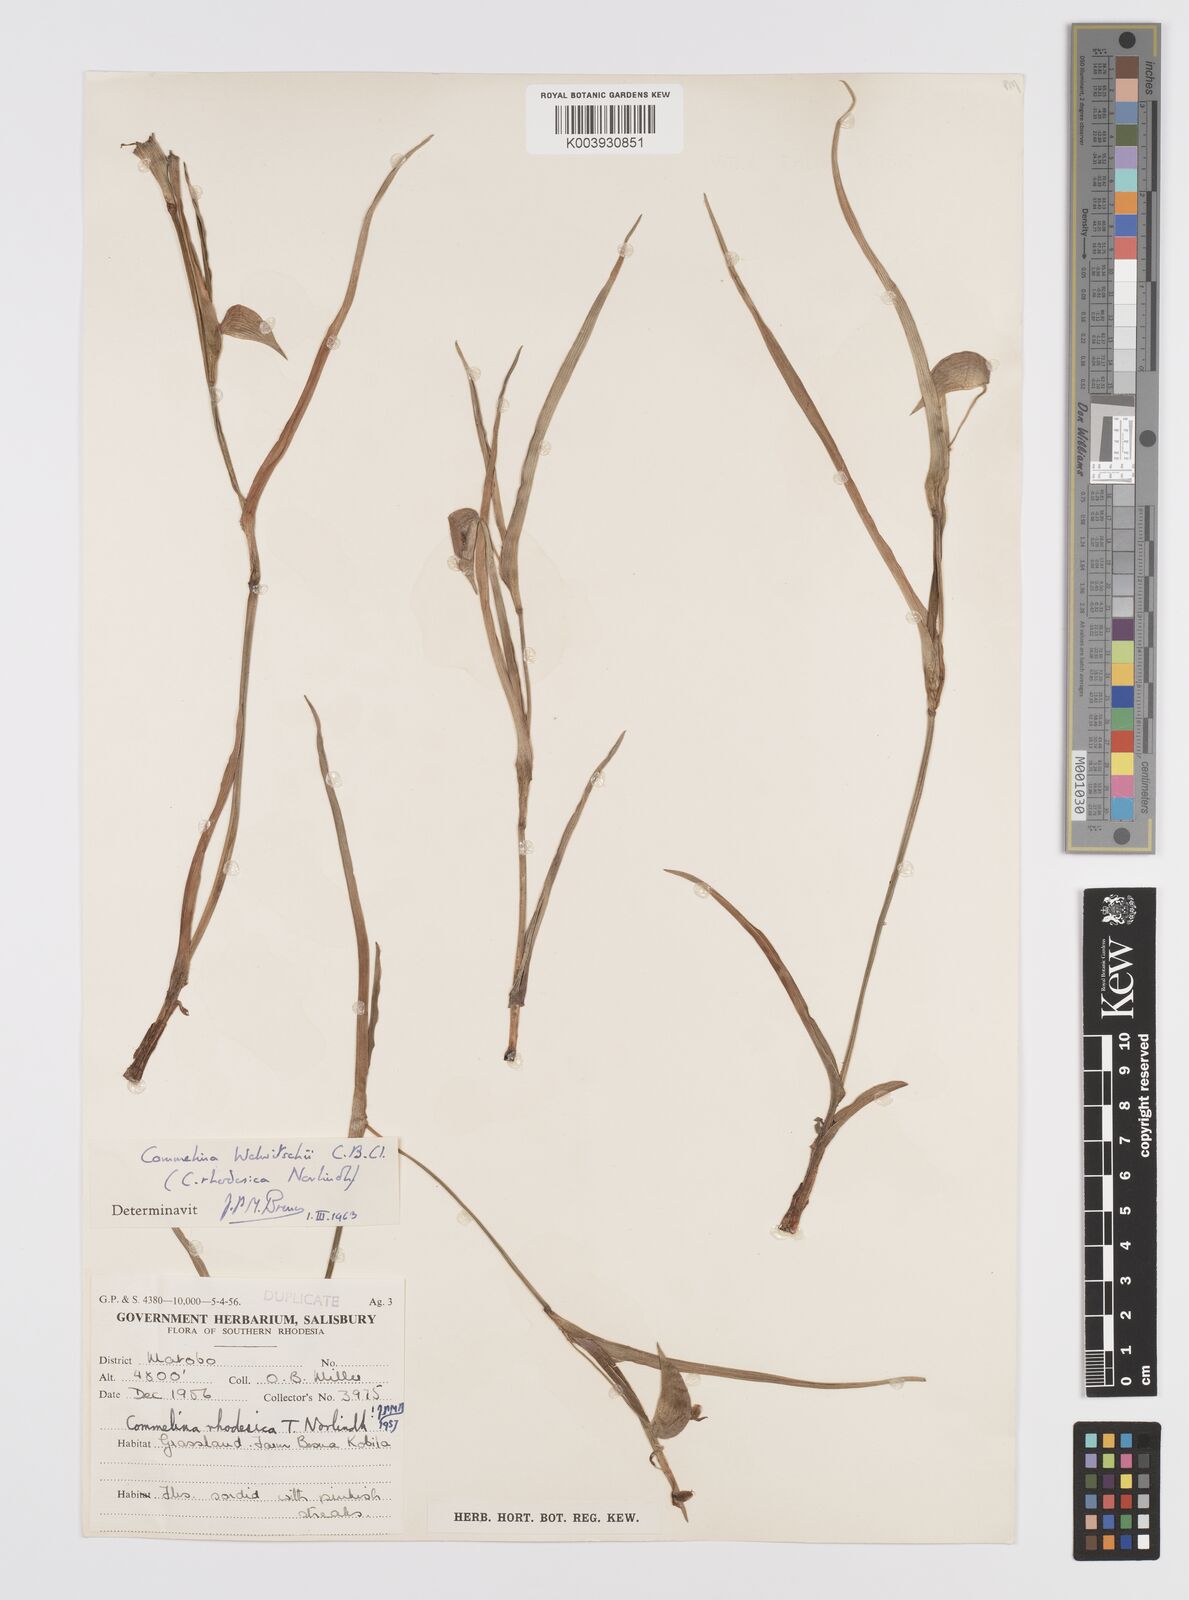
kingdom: Plantae
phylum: Tracheophyta
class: Liliopsida
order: Commelinales
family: Commelinaceae
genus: Commelina
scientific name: Commelina welwitschii
